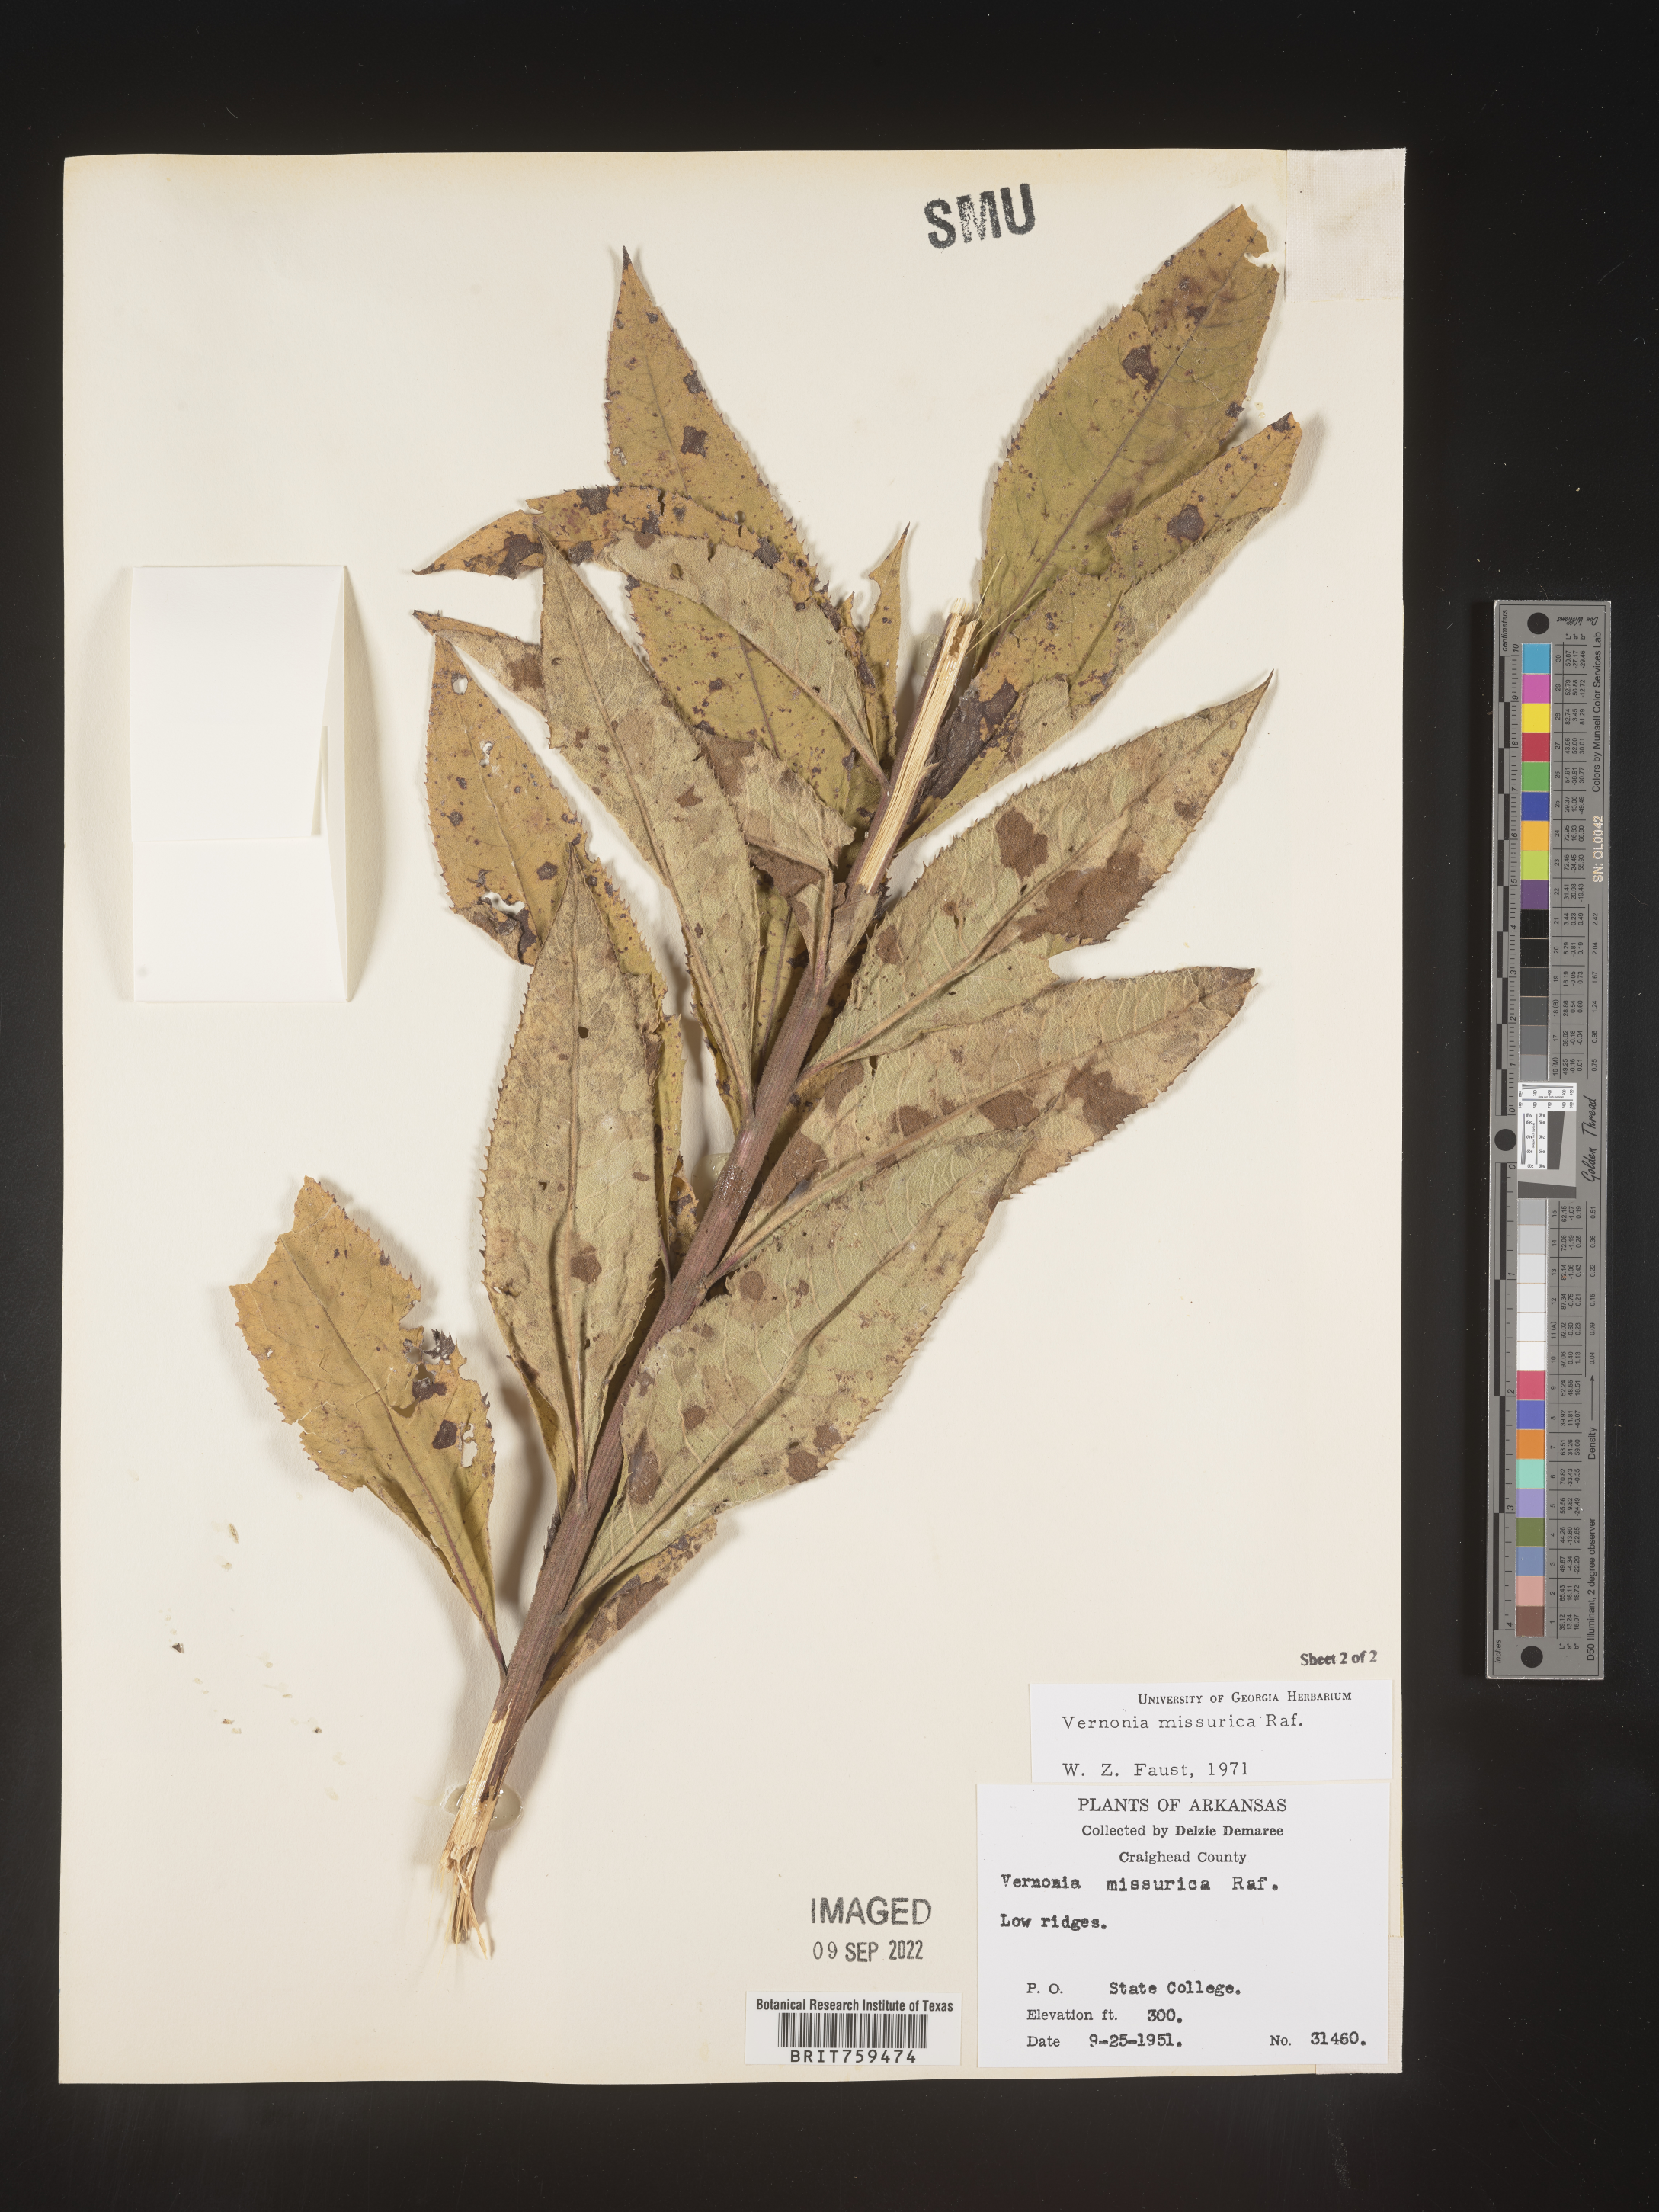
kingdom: Plantae
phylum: Tracheophyta
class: Magnoliopsida
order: Asterales
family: Asteraceae
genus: Vernonia
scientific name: Vernonia missurica
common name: Missouri ironweed
